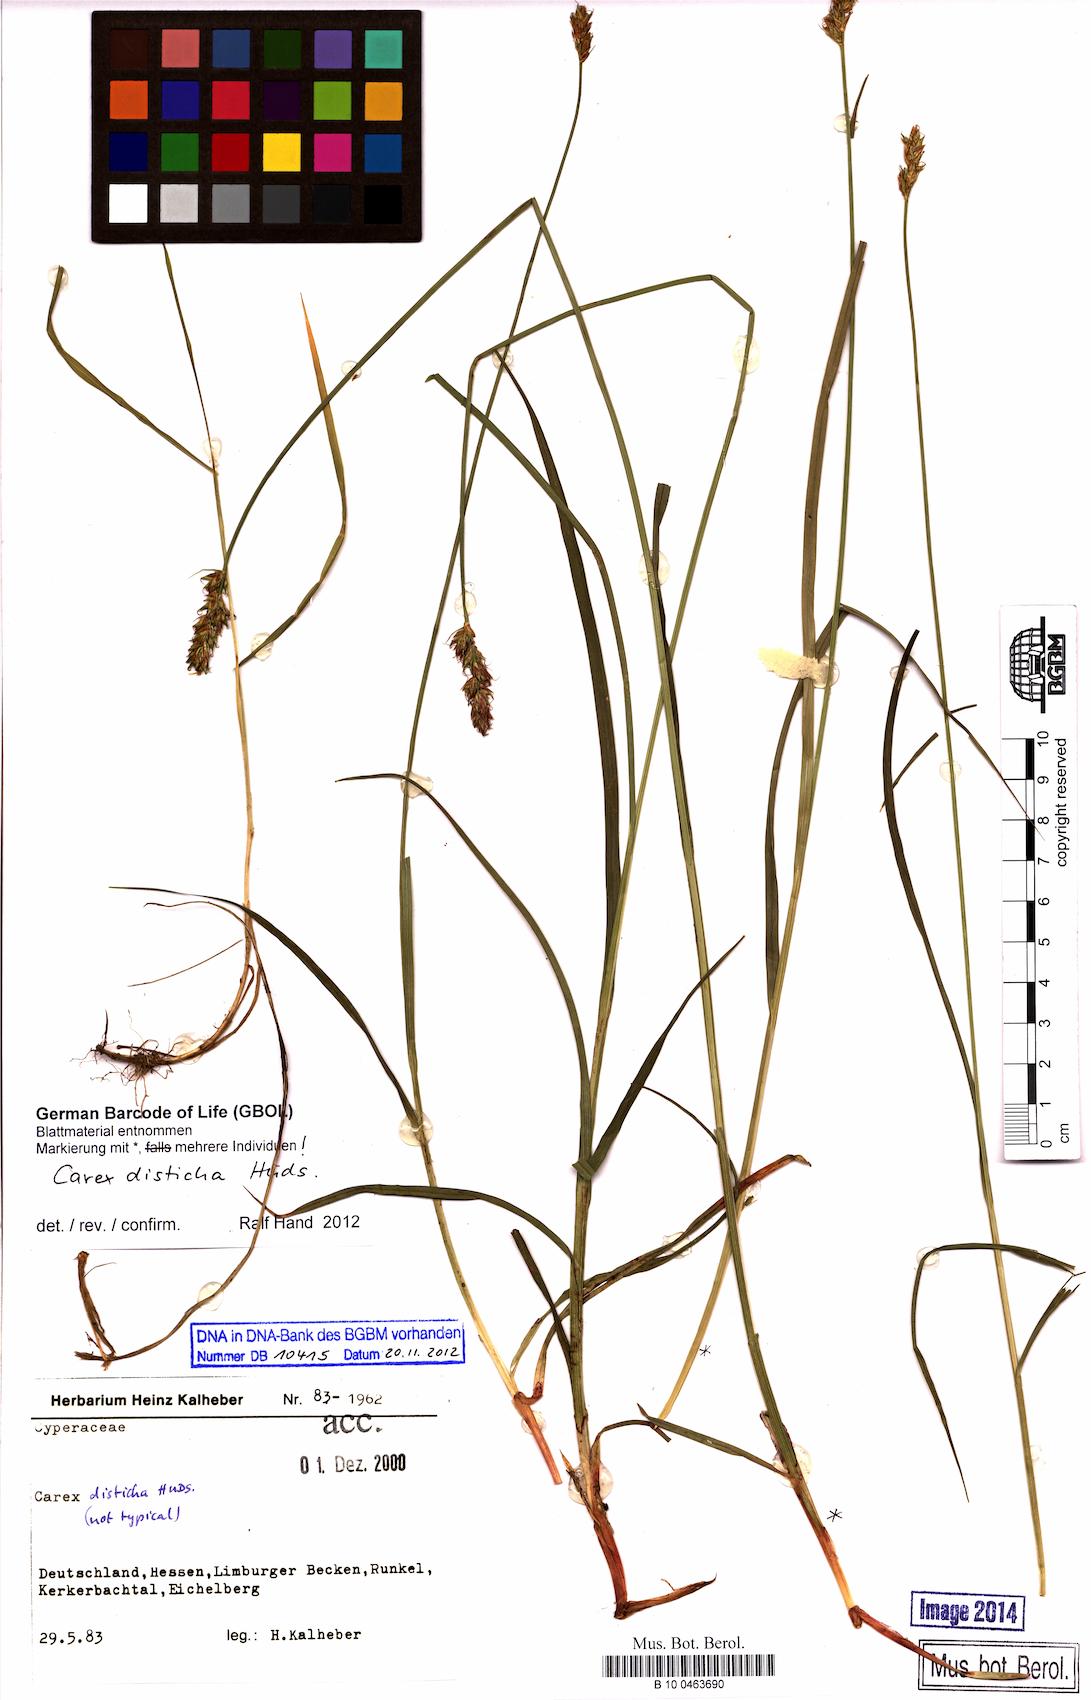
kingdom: Plantae
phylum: Tracheophyta
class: Liliopsida
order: Poales
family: Cyperaceae
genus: Carex
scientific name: Carex disticha
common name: Brown sedge
